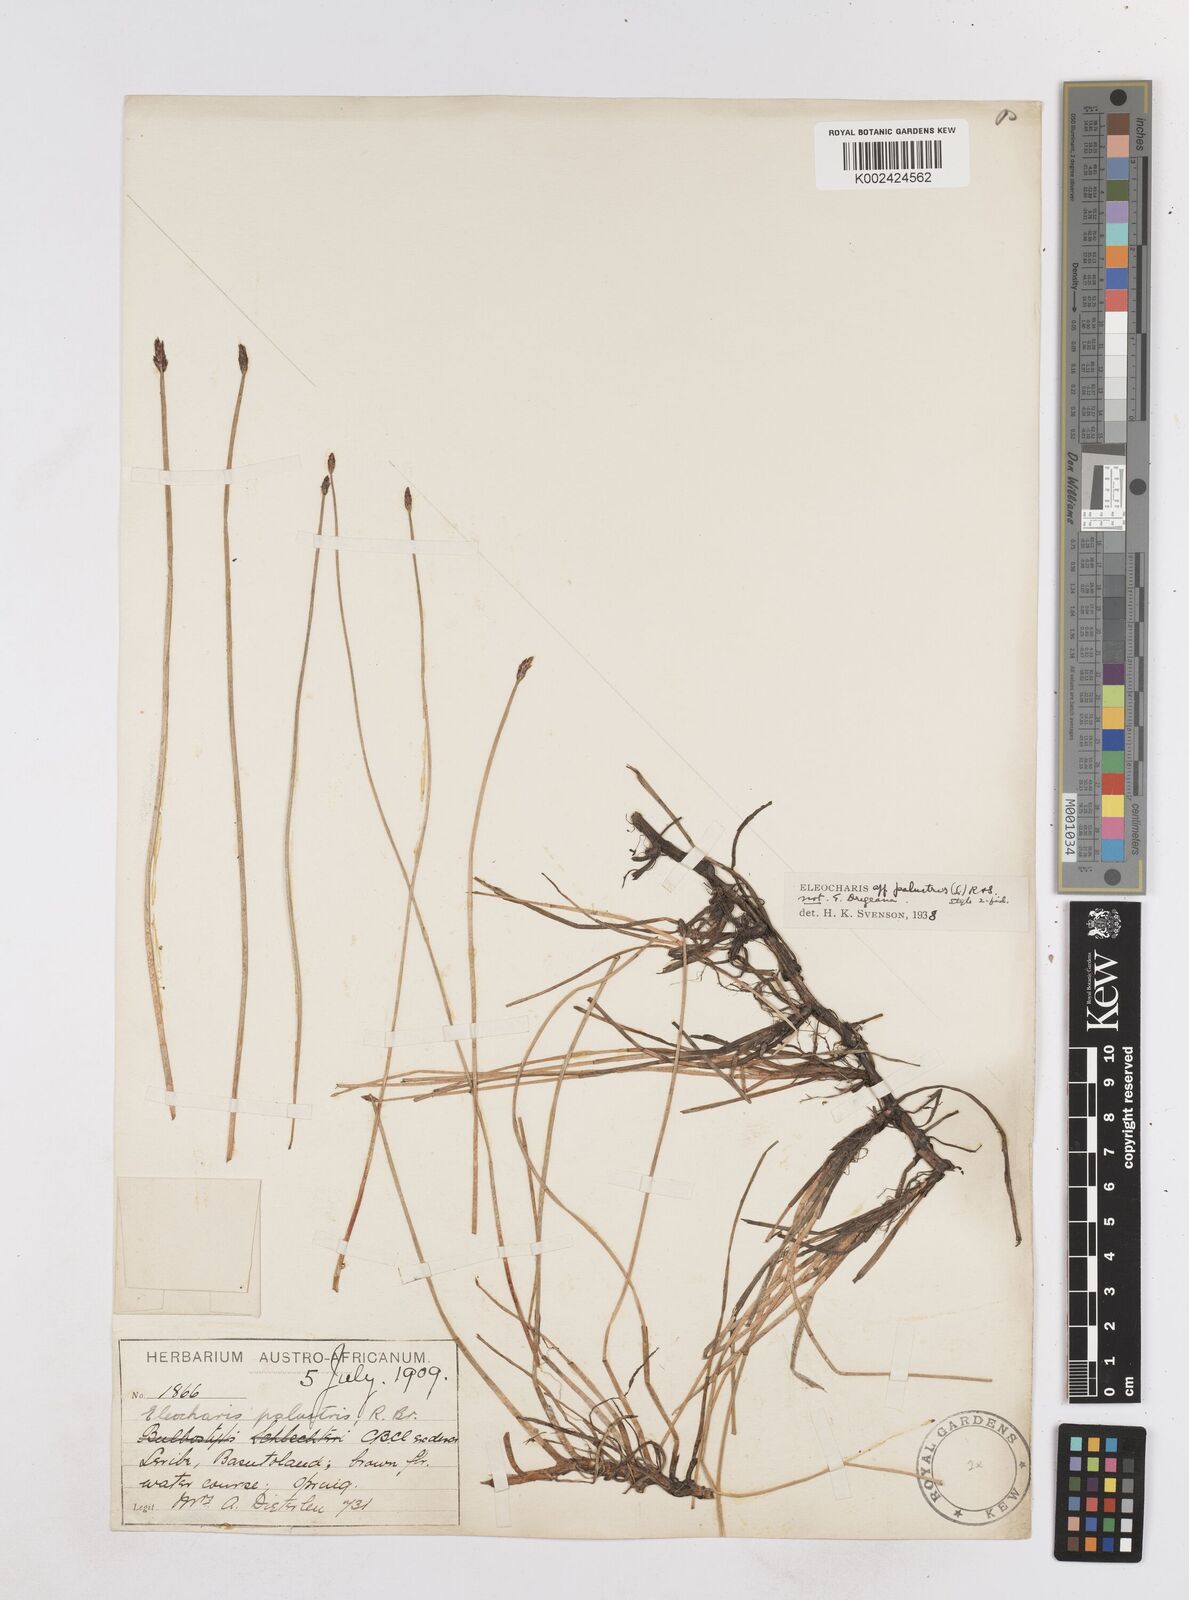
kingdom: Plantae
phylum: Tracheophyta
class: Liliopsida
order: Poales
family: Cyperaceae
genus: Eleocharis
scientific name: Eleocharis palustris
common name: Common spike-rush
